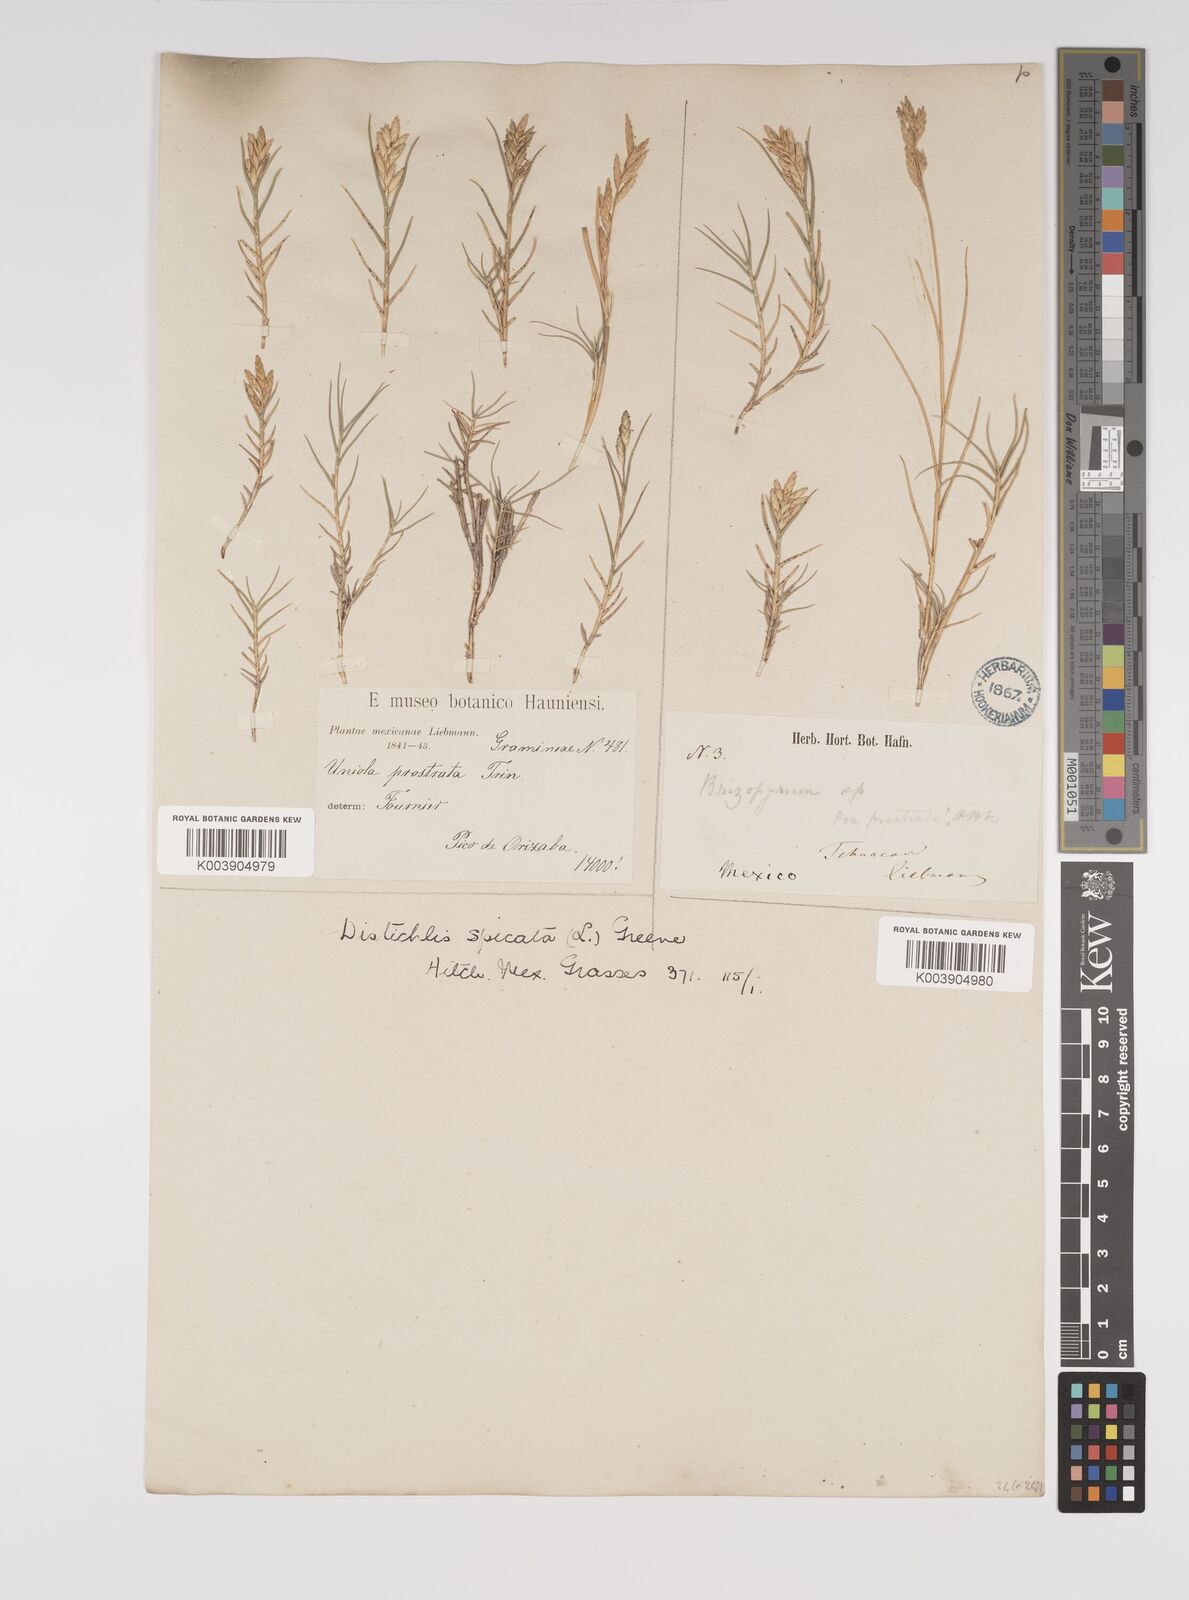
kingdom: Plantae
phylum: Tracheophyta
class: Liliopsida
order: Poales
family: Poaceae
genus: Distichlis
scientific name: Distichlis spicata
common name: Saltgrass
